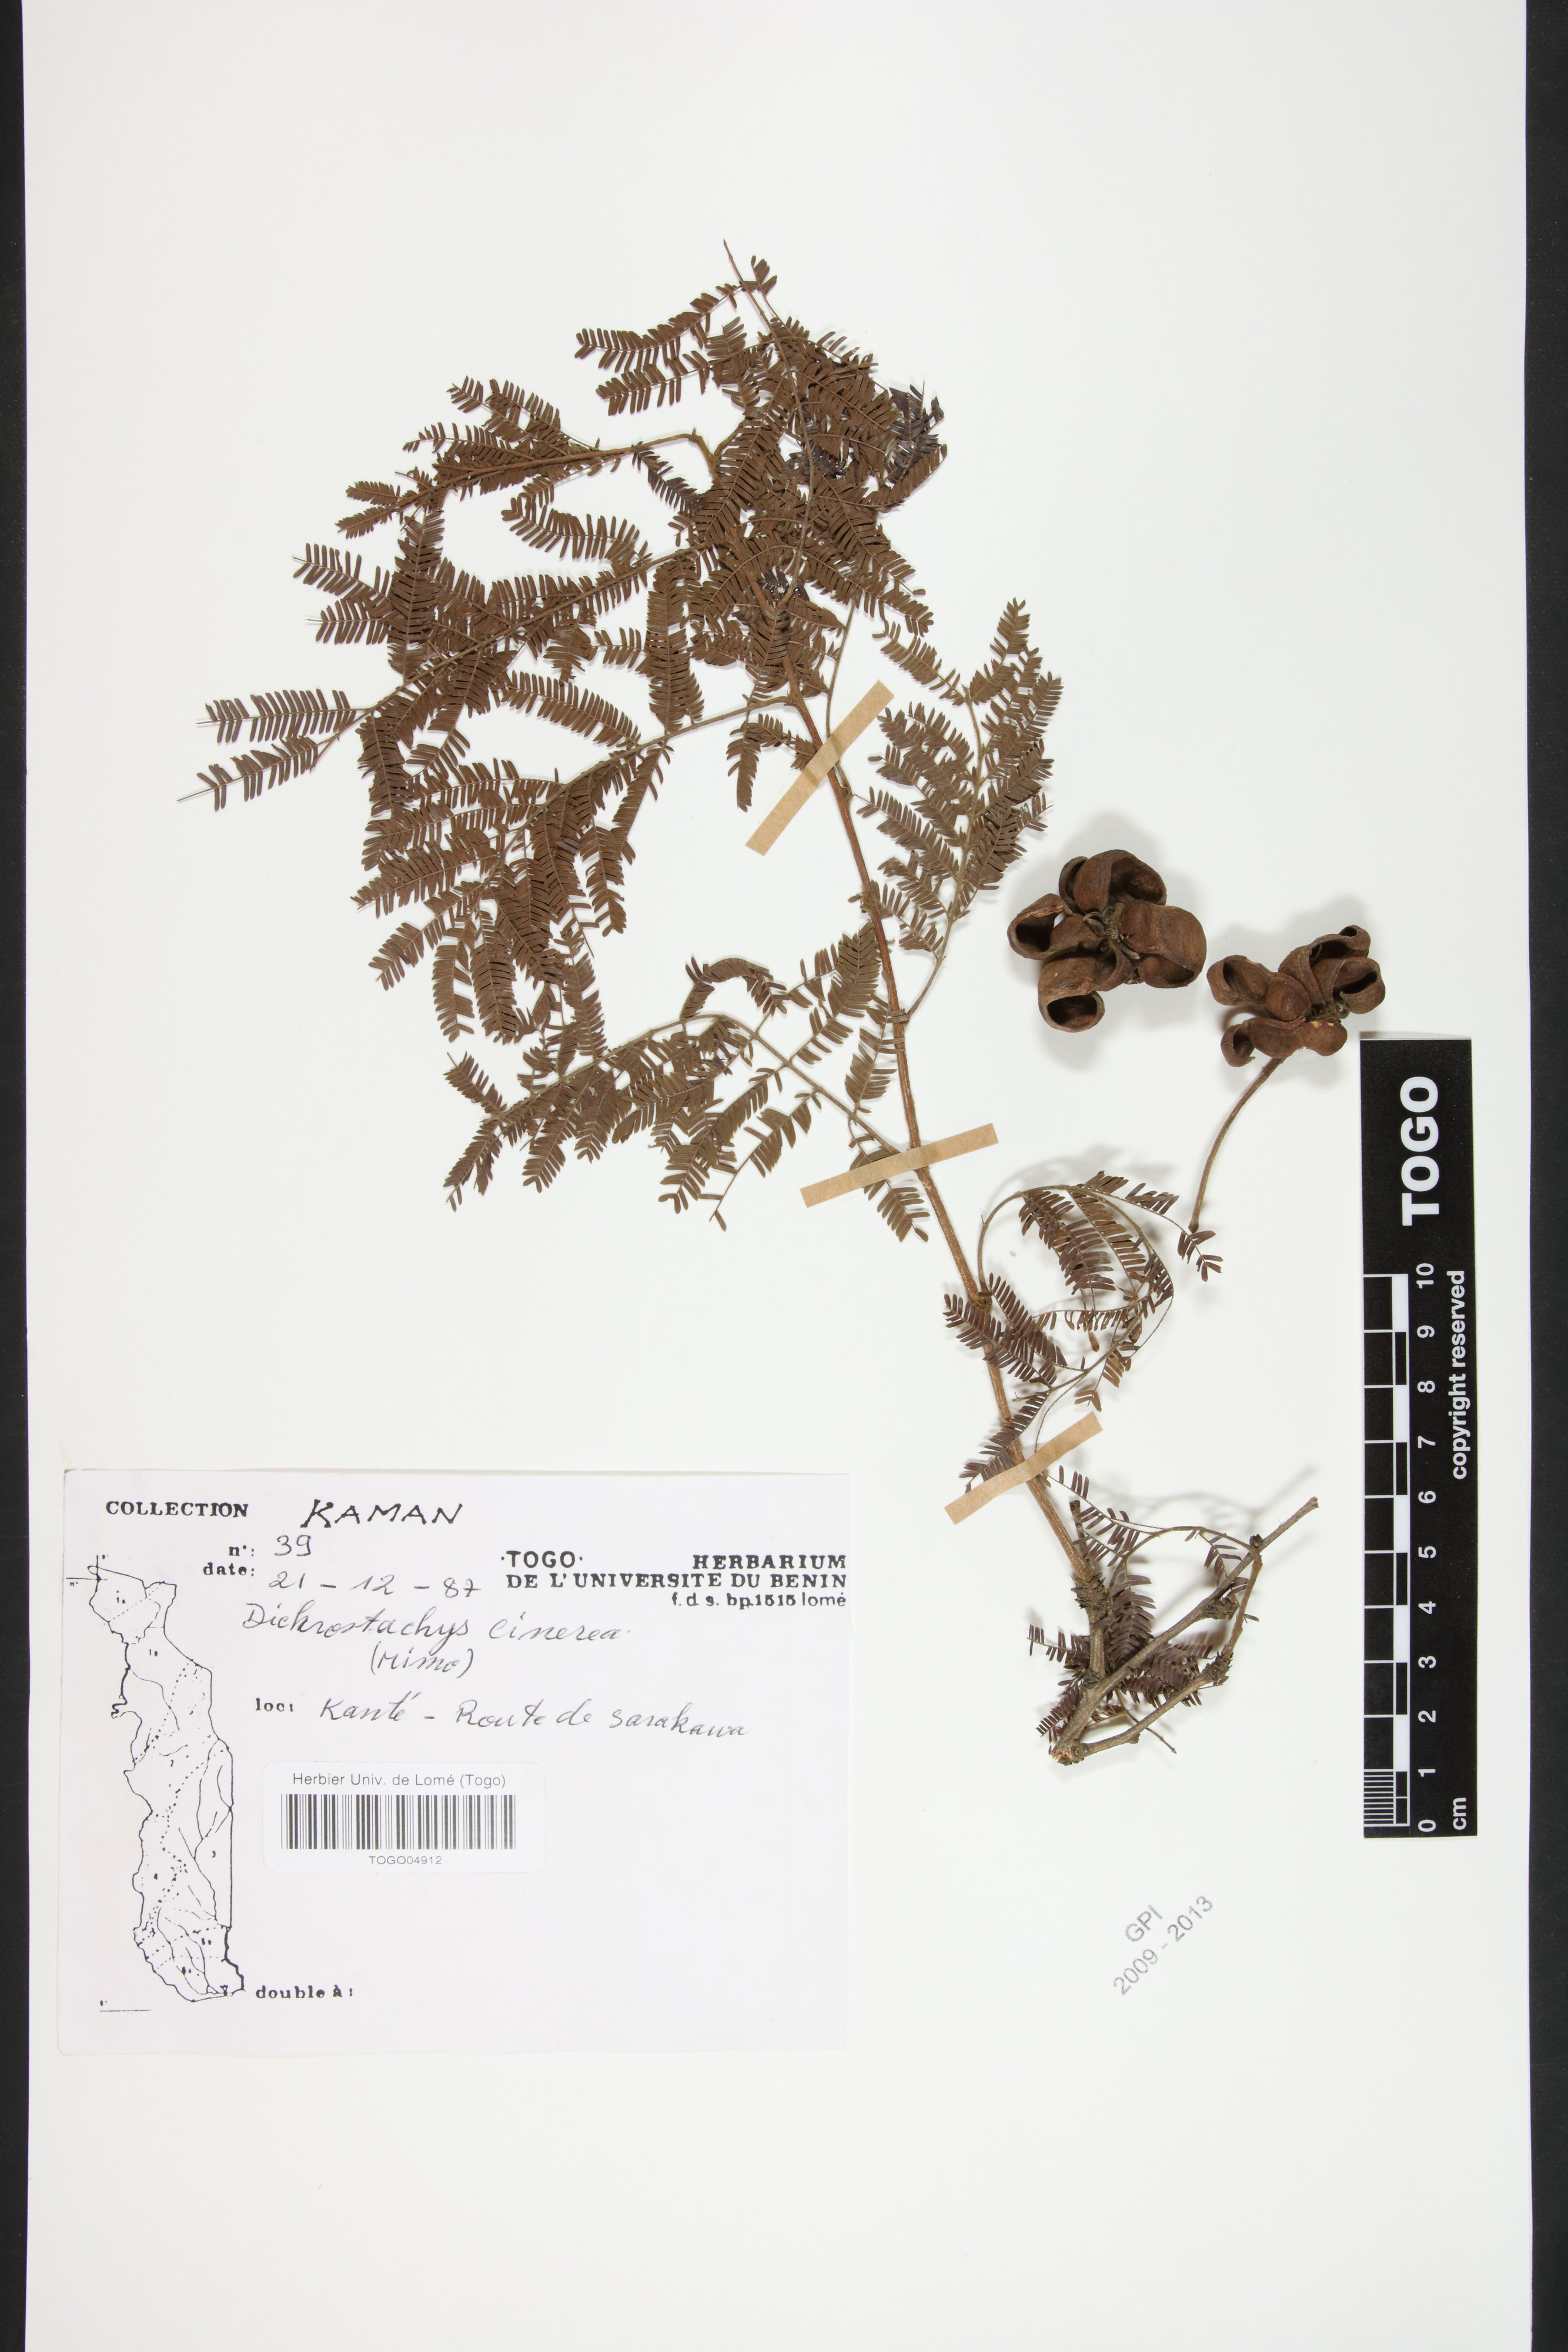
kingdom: Plantae
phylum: Tracheophyta
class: Magnoliopsida
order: Fabales
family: Fabaceae
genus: Dichrostachys
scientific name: Dichrostachys cinerea
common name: Sicklebush
